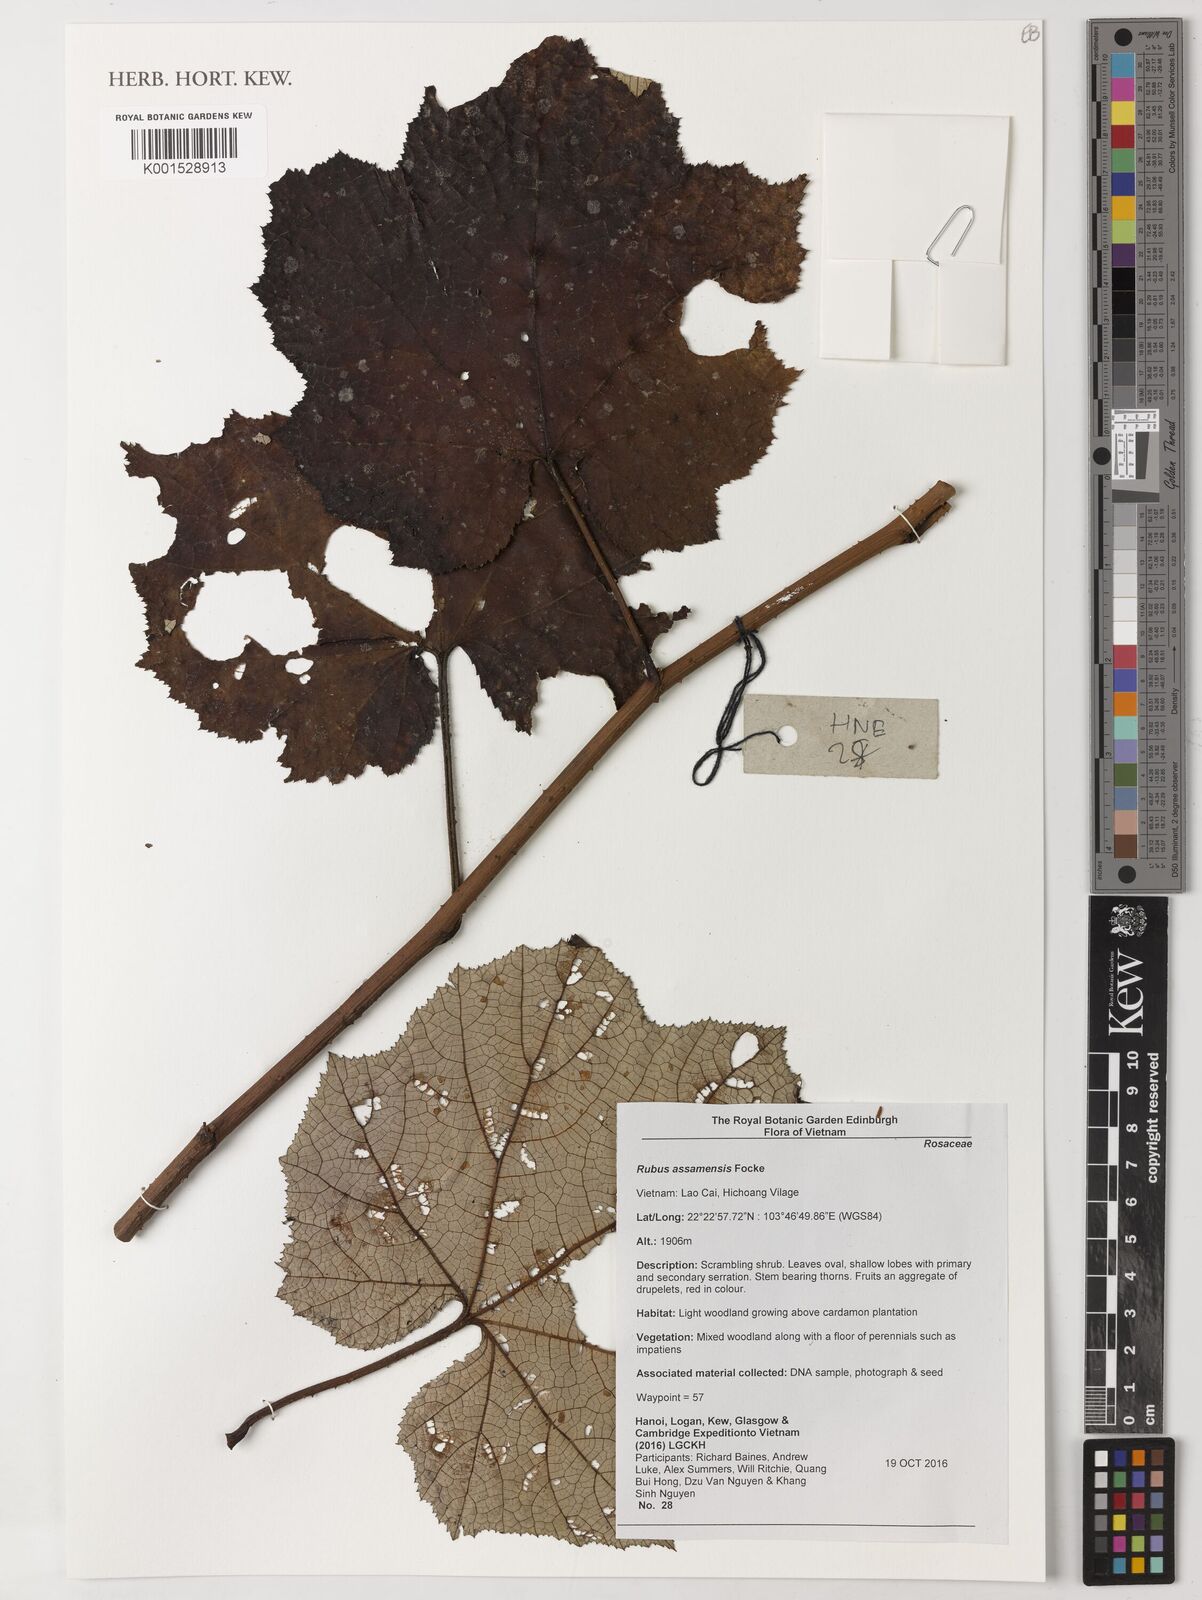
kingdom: Plantae
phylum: Tracheophyta
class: Magnoliopsida
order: Rosales
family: Rosaceae
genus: Rubus
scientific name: Rubus assamensis
